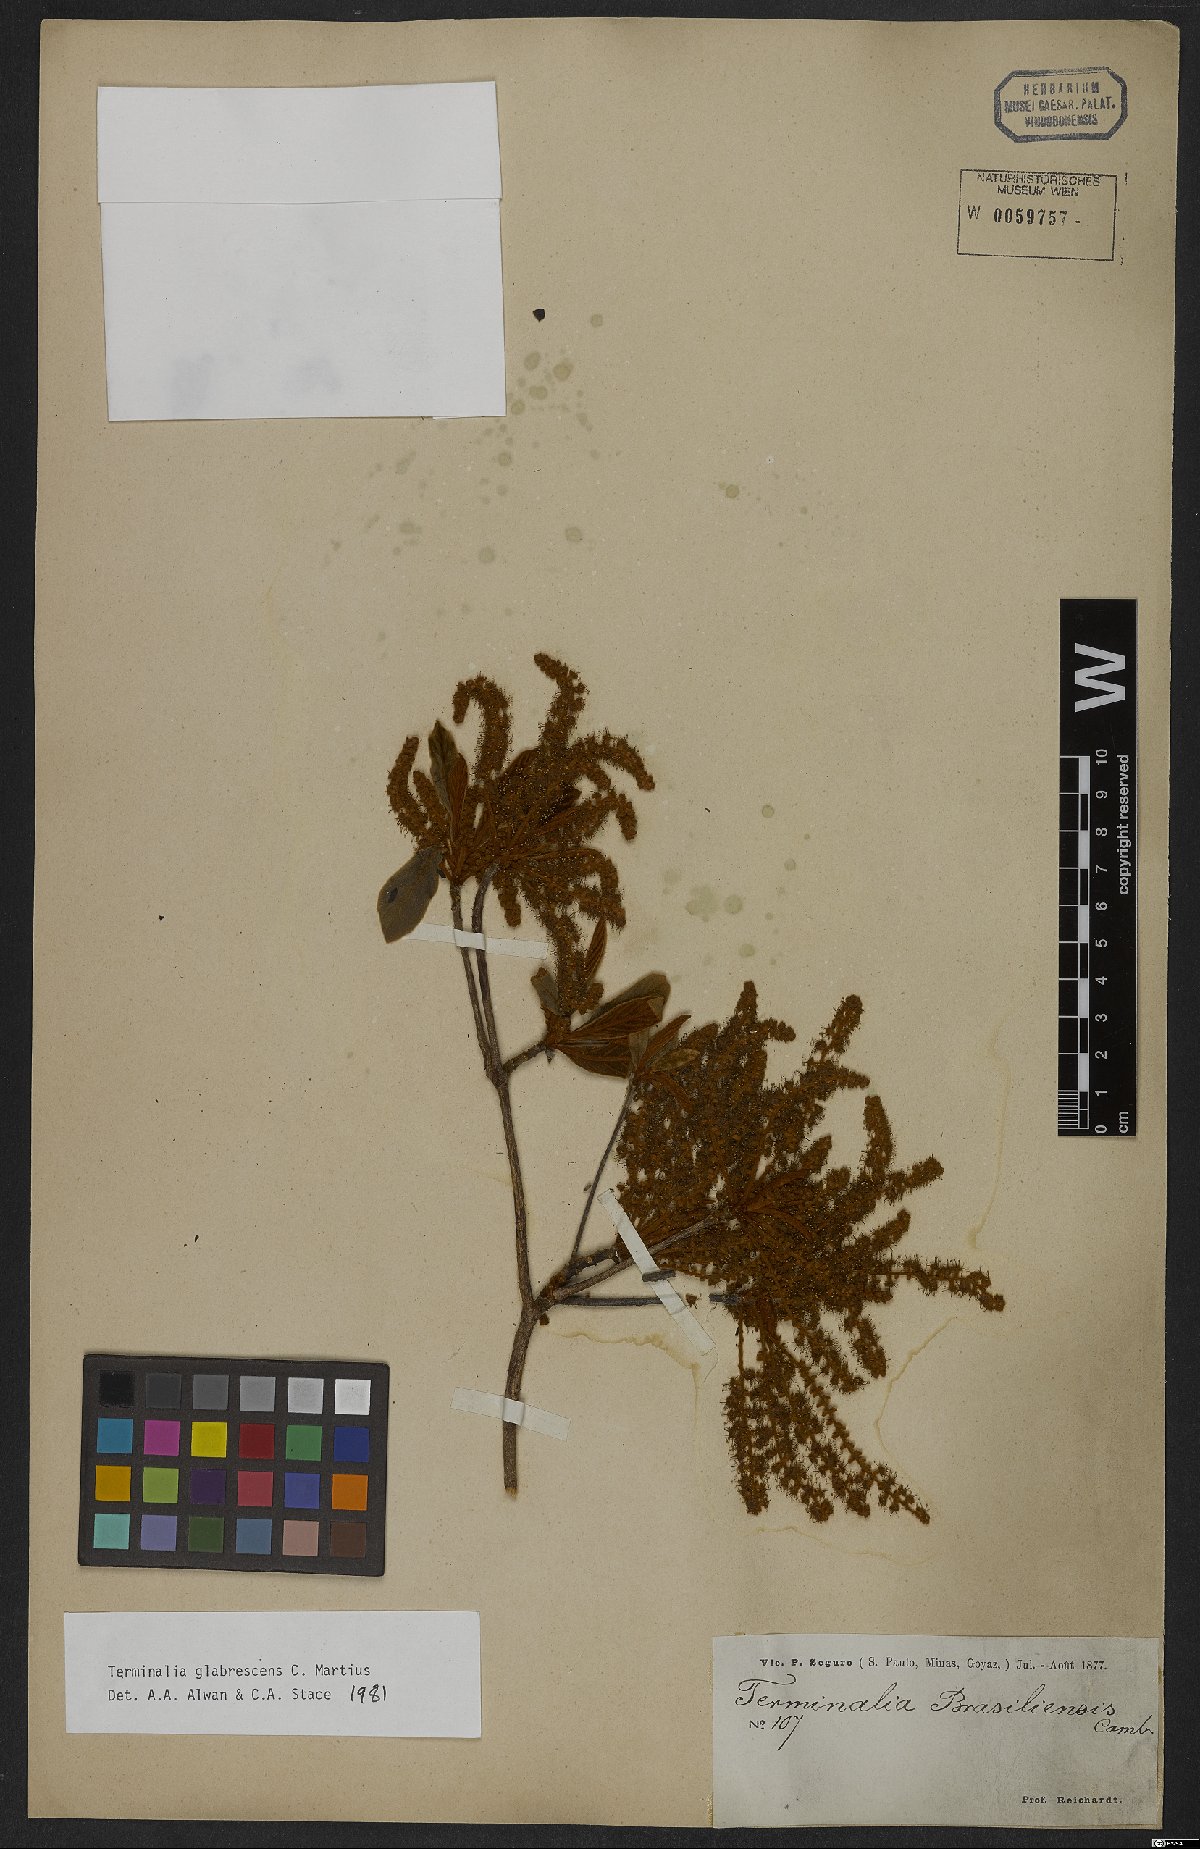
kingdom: Plantae
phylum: Tracheophyta
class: Magnoliopsida
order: Myrtales
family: Combretaceae
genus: Terminalia
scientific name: Terminalia glabrescens
